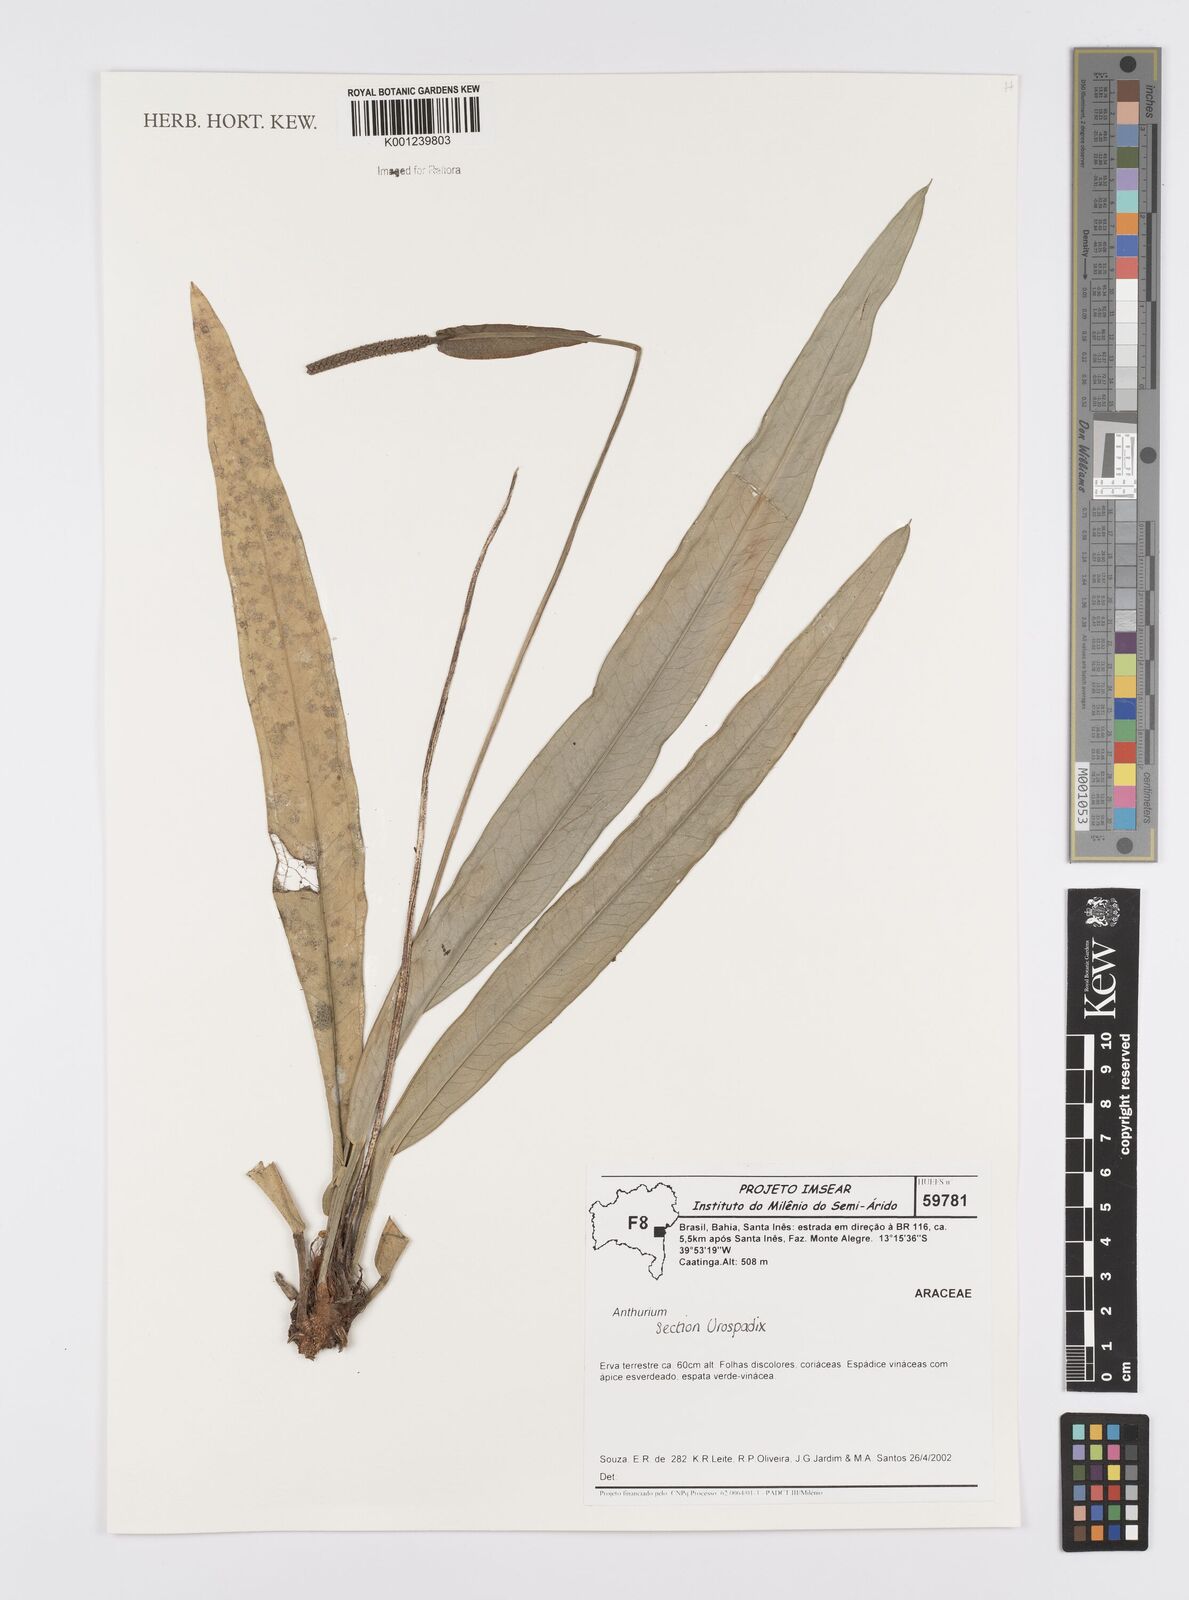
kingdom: Plantae
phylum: Tracheophyta
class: Liliopsida
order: Alismatales
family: Araceae
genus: Anthurium
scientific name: Anthurium
